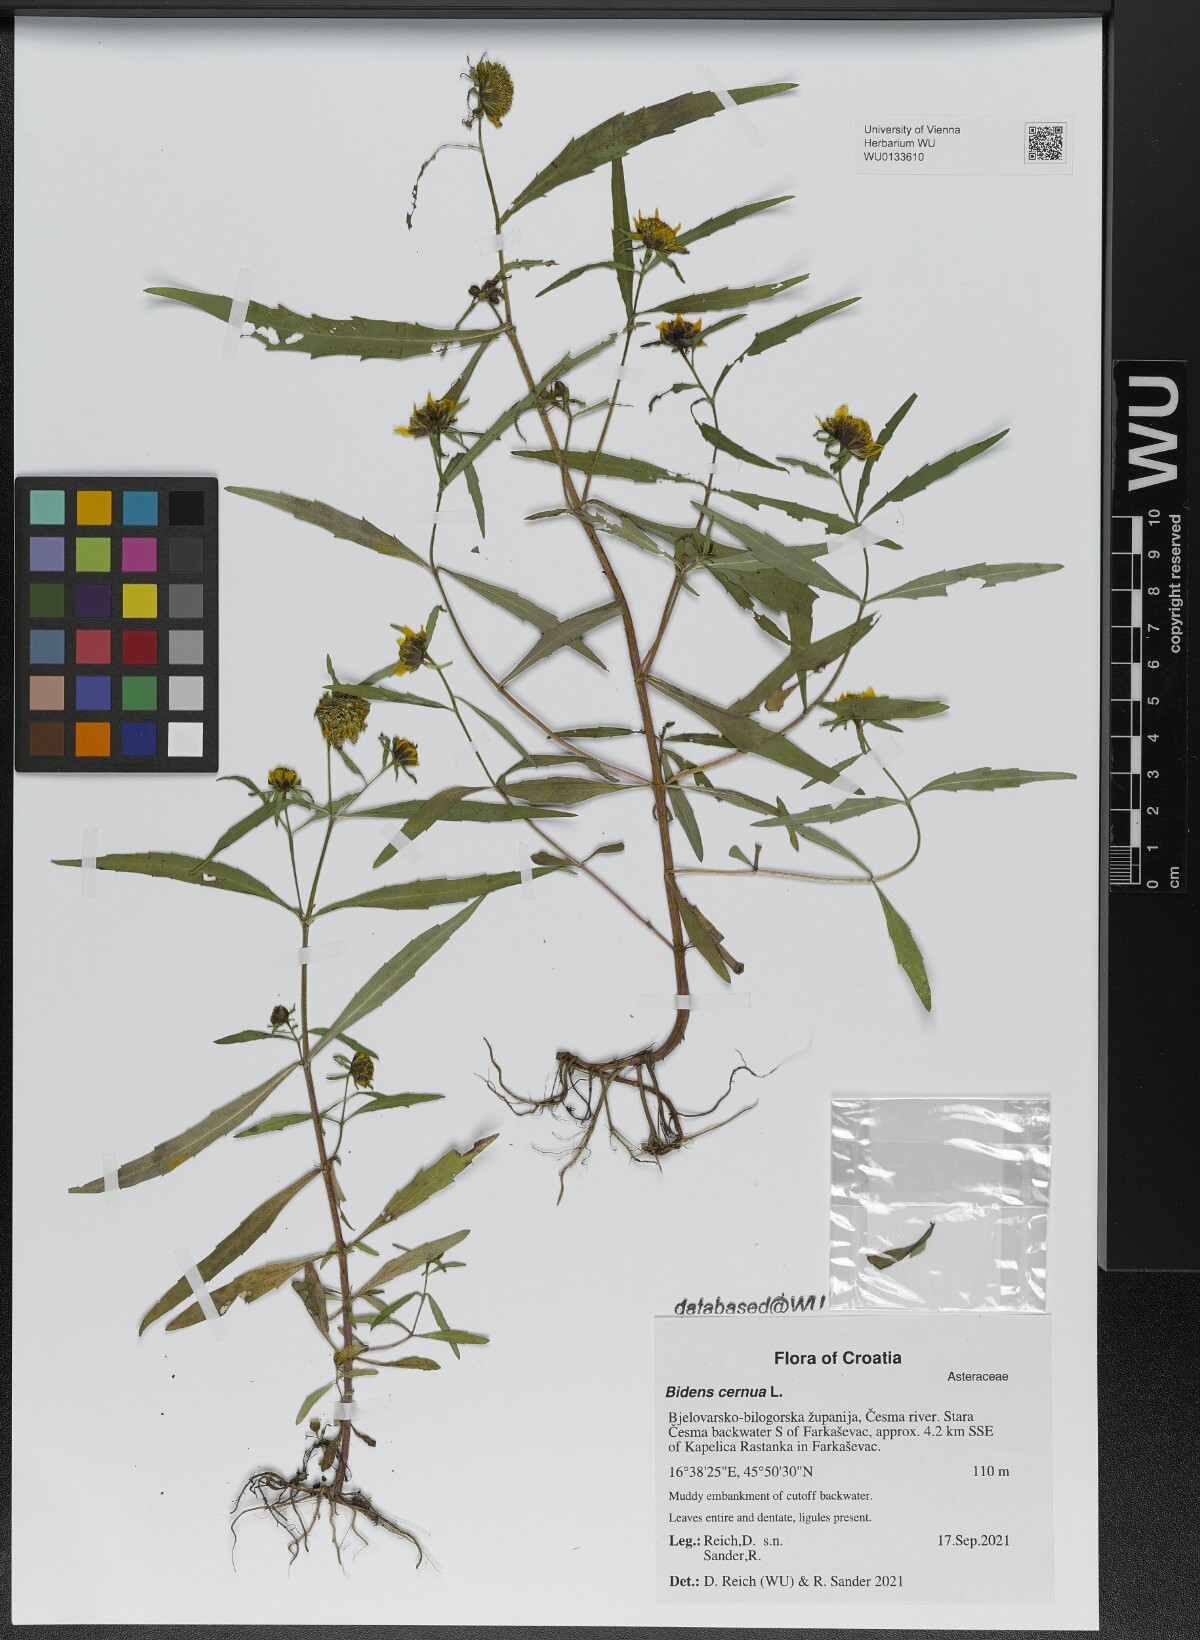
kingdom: Plantae
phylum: Tracheophyta
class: Magnoliopsida
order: Asterales
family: Asteraceae
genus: Bidens
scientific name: Bidens cernua
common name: Nodding bur-marigold
